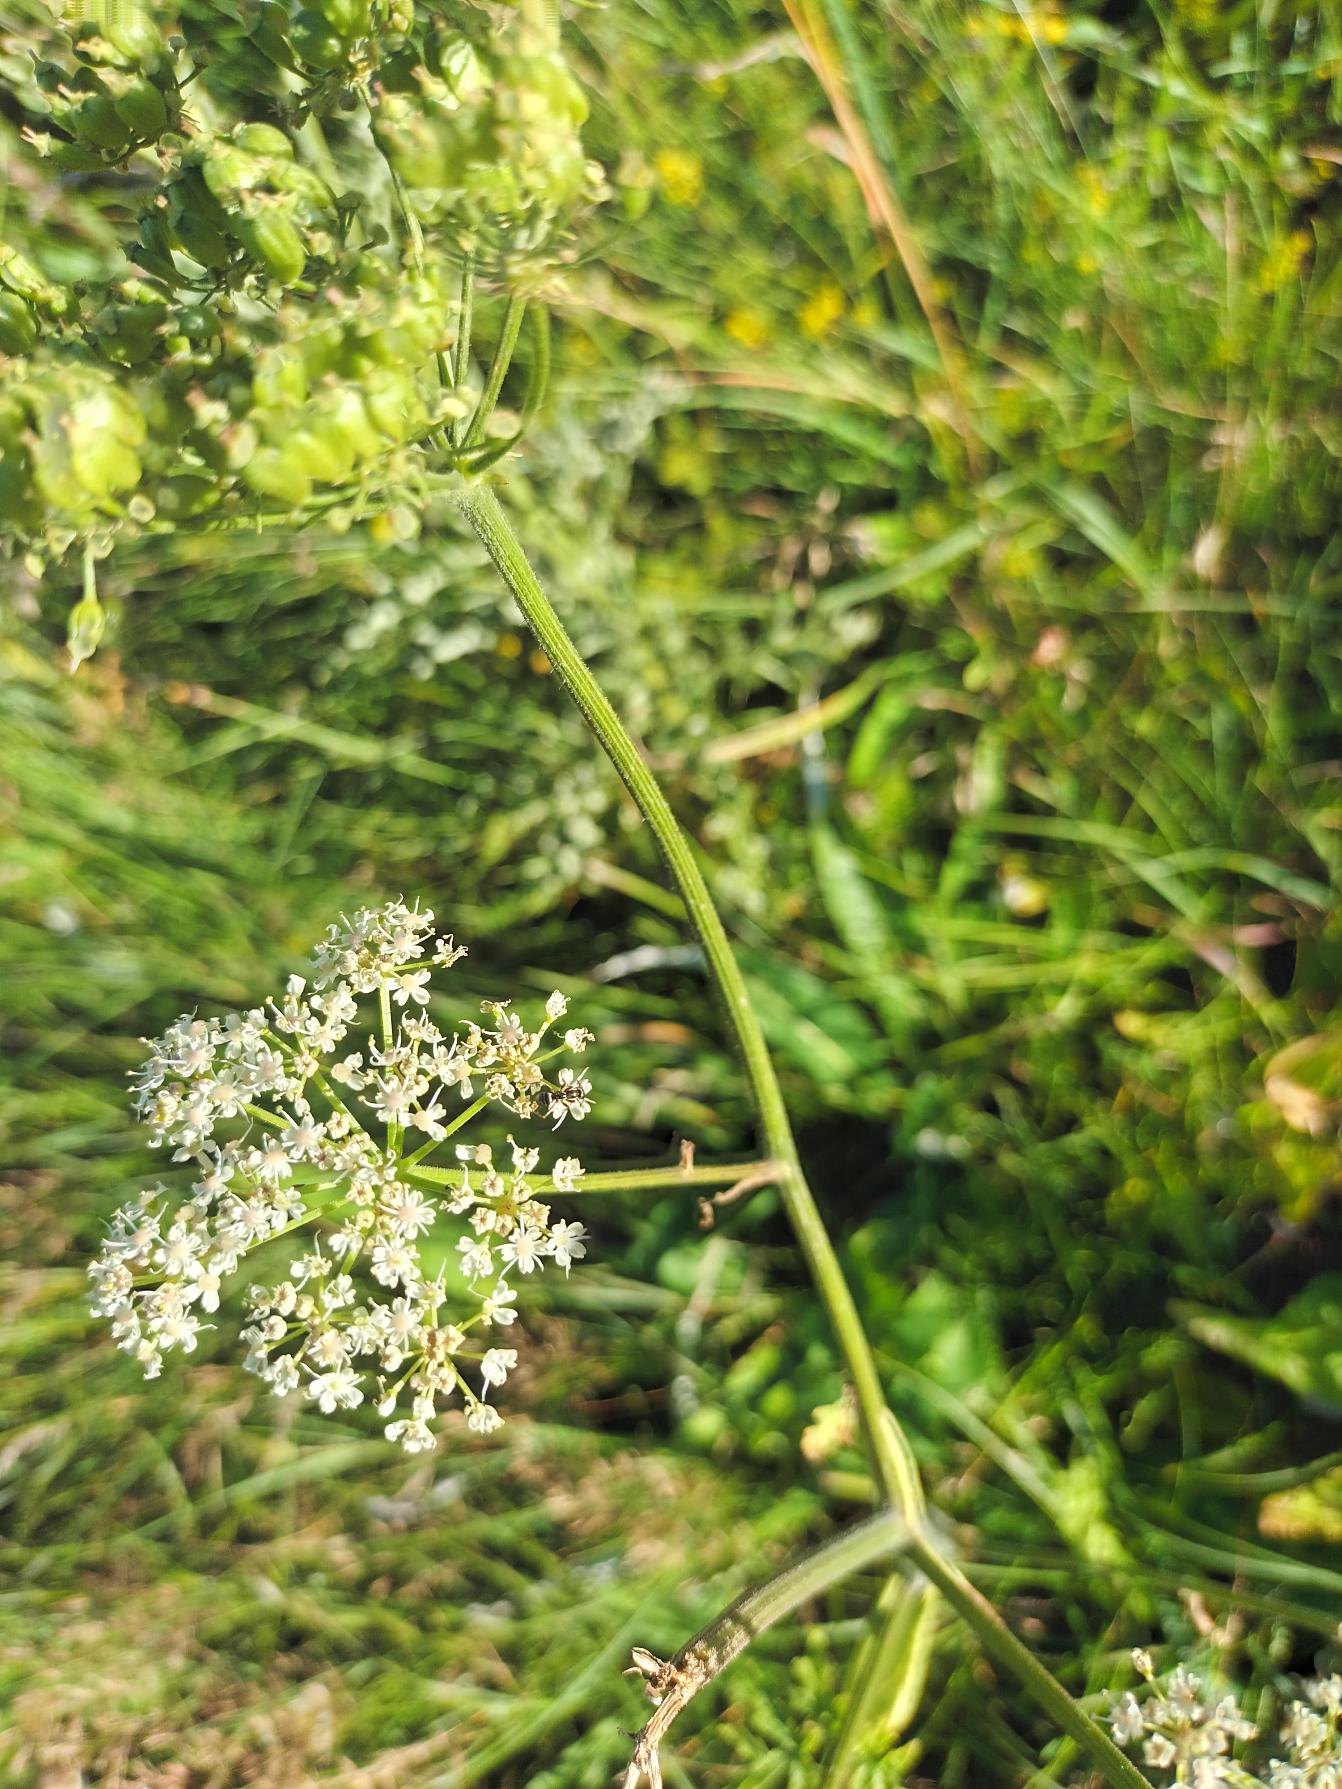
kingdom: Plantae
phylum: Tracheophyta
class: Magnoliopsida
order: Apiales
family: Apiaceae
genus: Heracleum
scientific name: Heracleum sphondylium
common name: Almindelig bjørneklo
